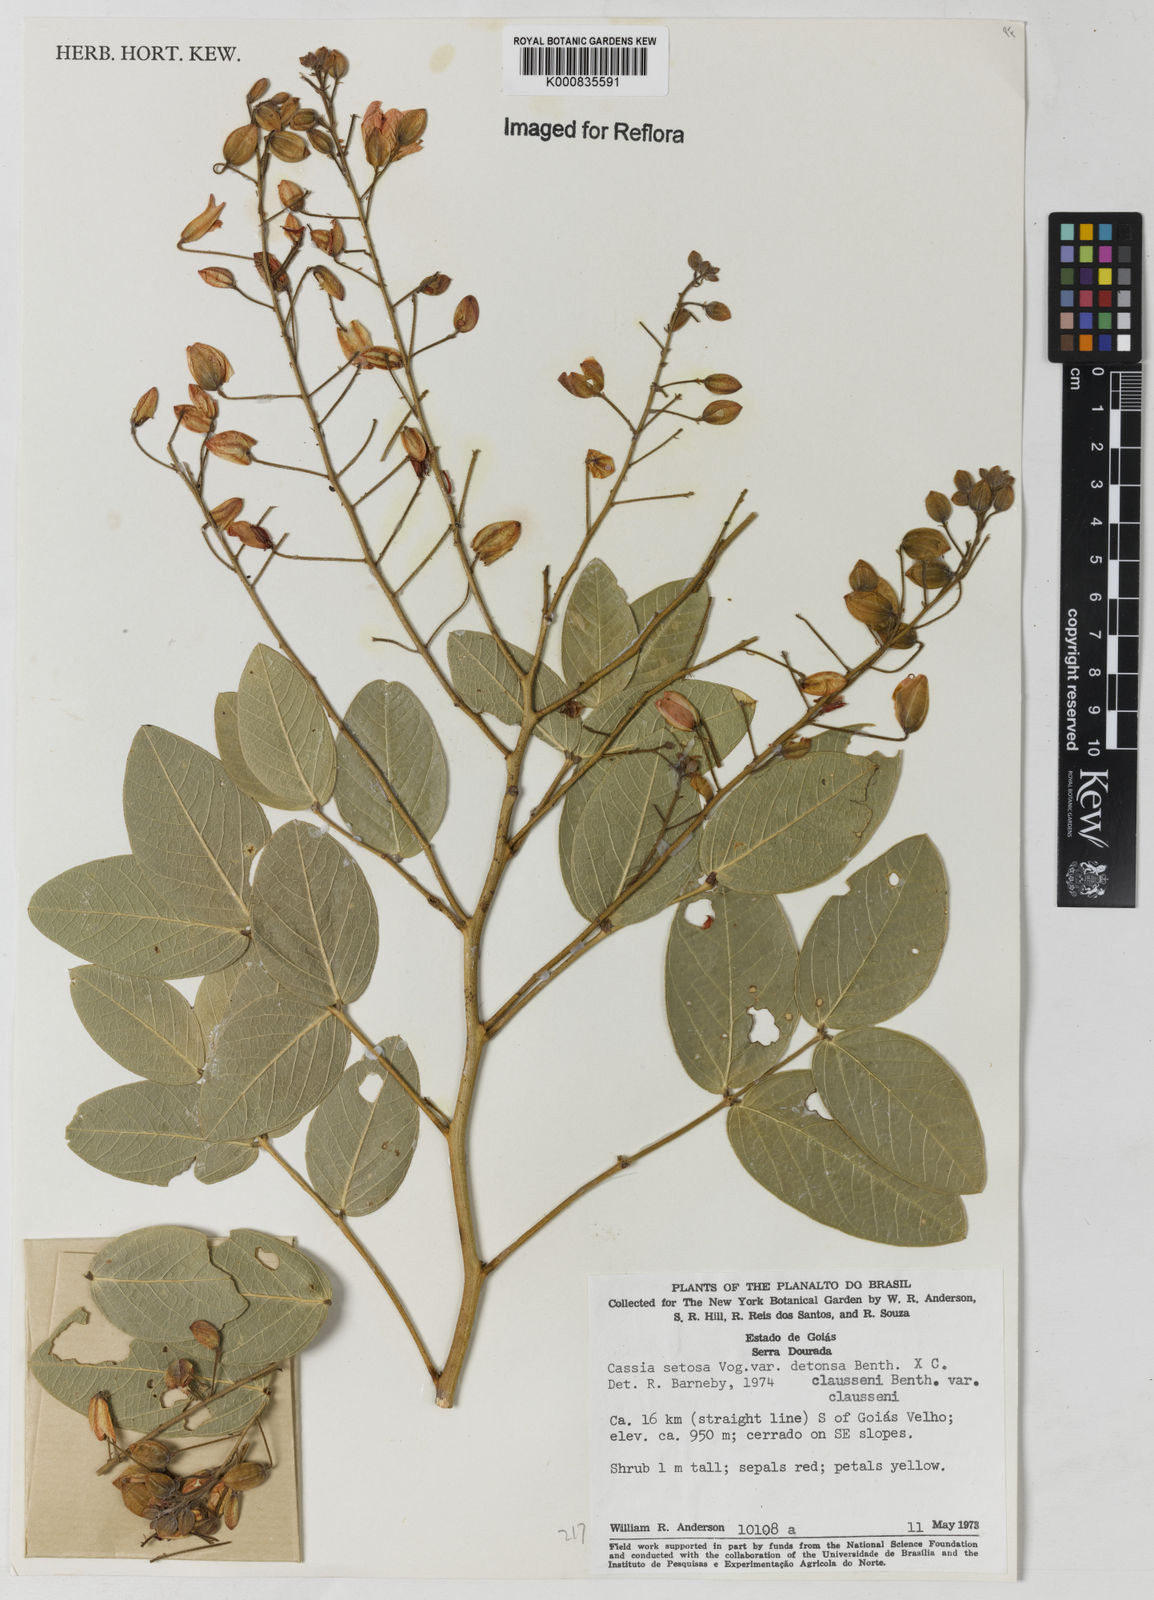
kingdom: Plantae
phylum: Tracheophyta
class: Magnoliopsida
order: Fabales
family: Fabaceae
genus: Chamaecrista
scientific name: Chamaecrista setosa
